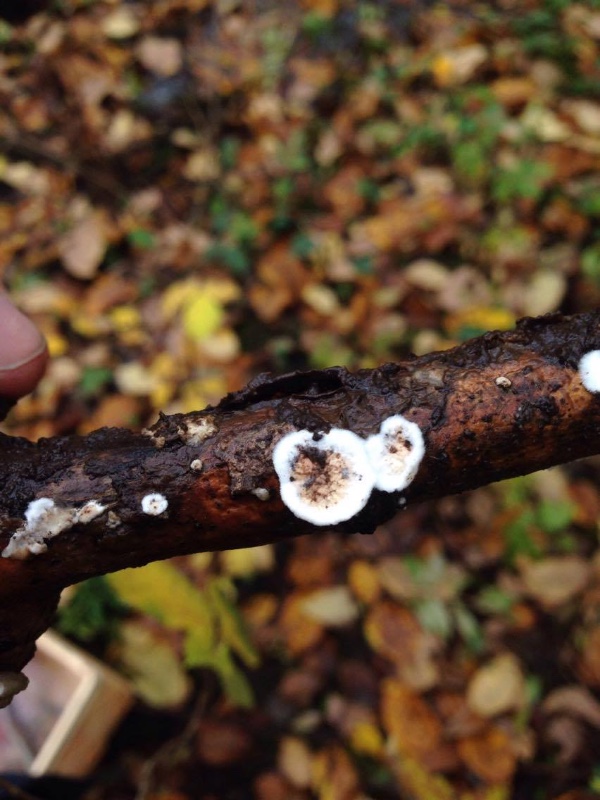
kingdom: Fungi
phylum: Basidiomycota
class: Agaricomycetes
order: Polyporales
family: Irpicaceae
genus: Byssomerulius
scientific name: Byssomerulius corium
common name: læder-åresvamp
